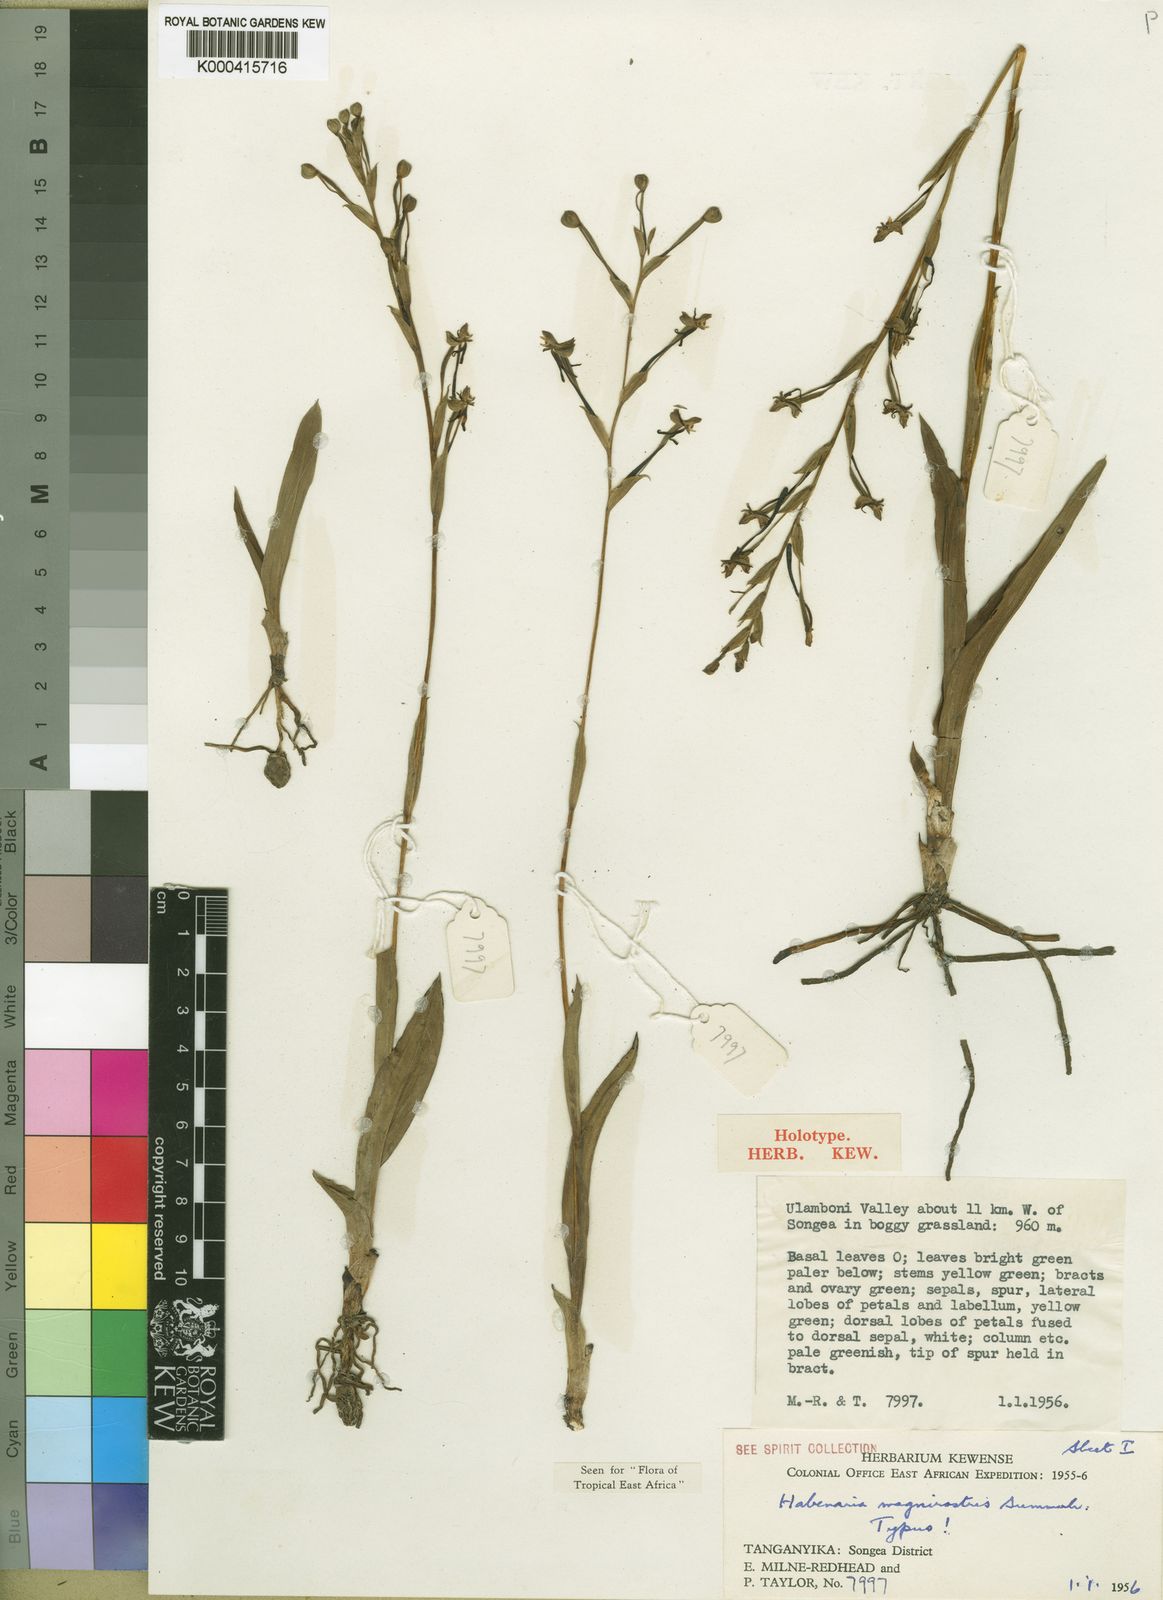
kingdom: Plantae
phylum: Tracheophyta
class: Liliopsida
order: Asparagales
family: Orchidaceae
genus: Habenaria
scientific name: Habenaria magnirostris
